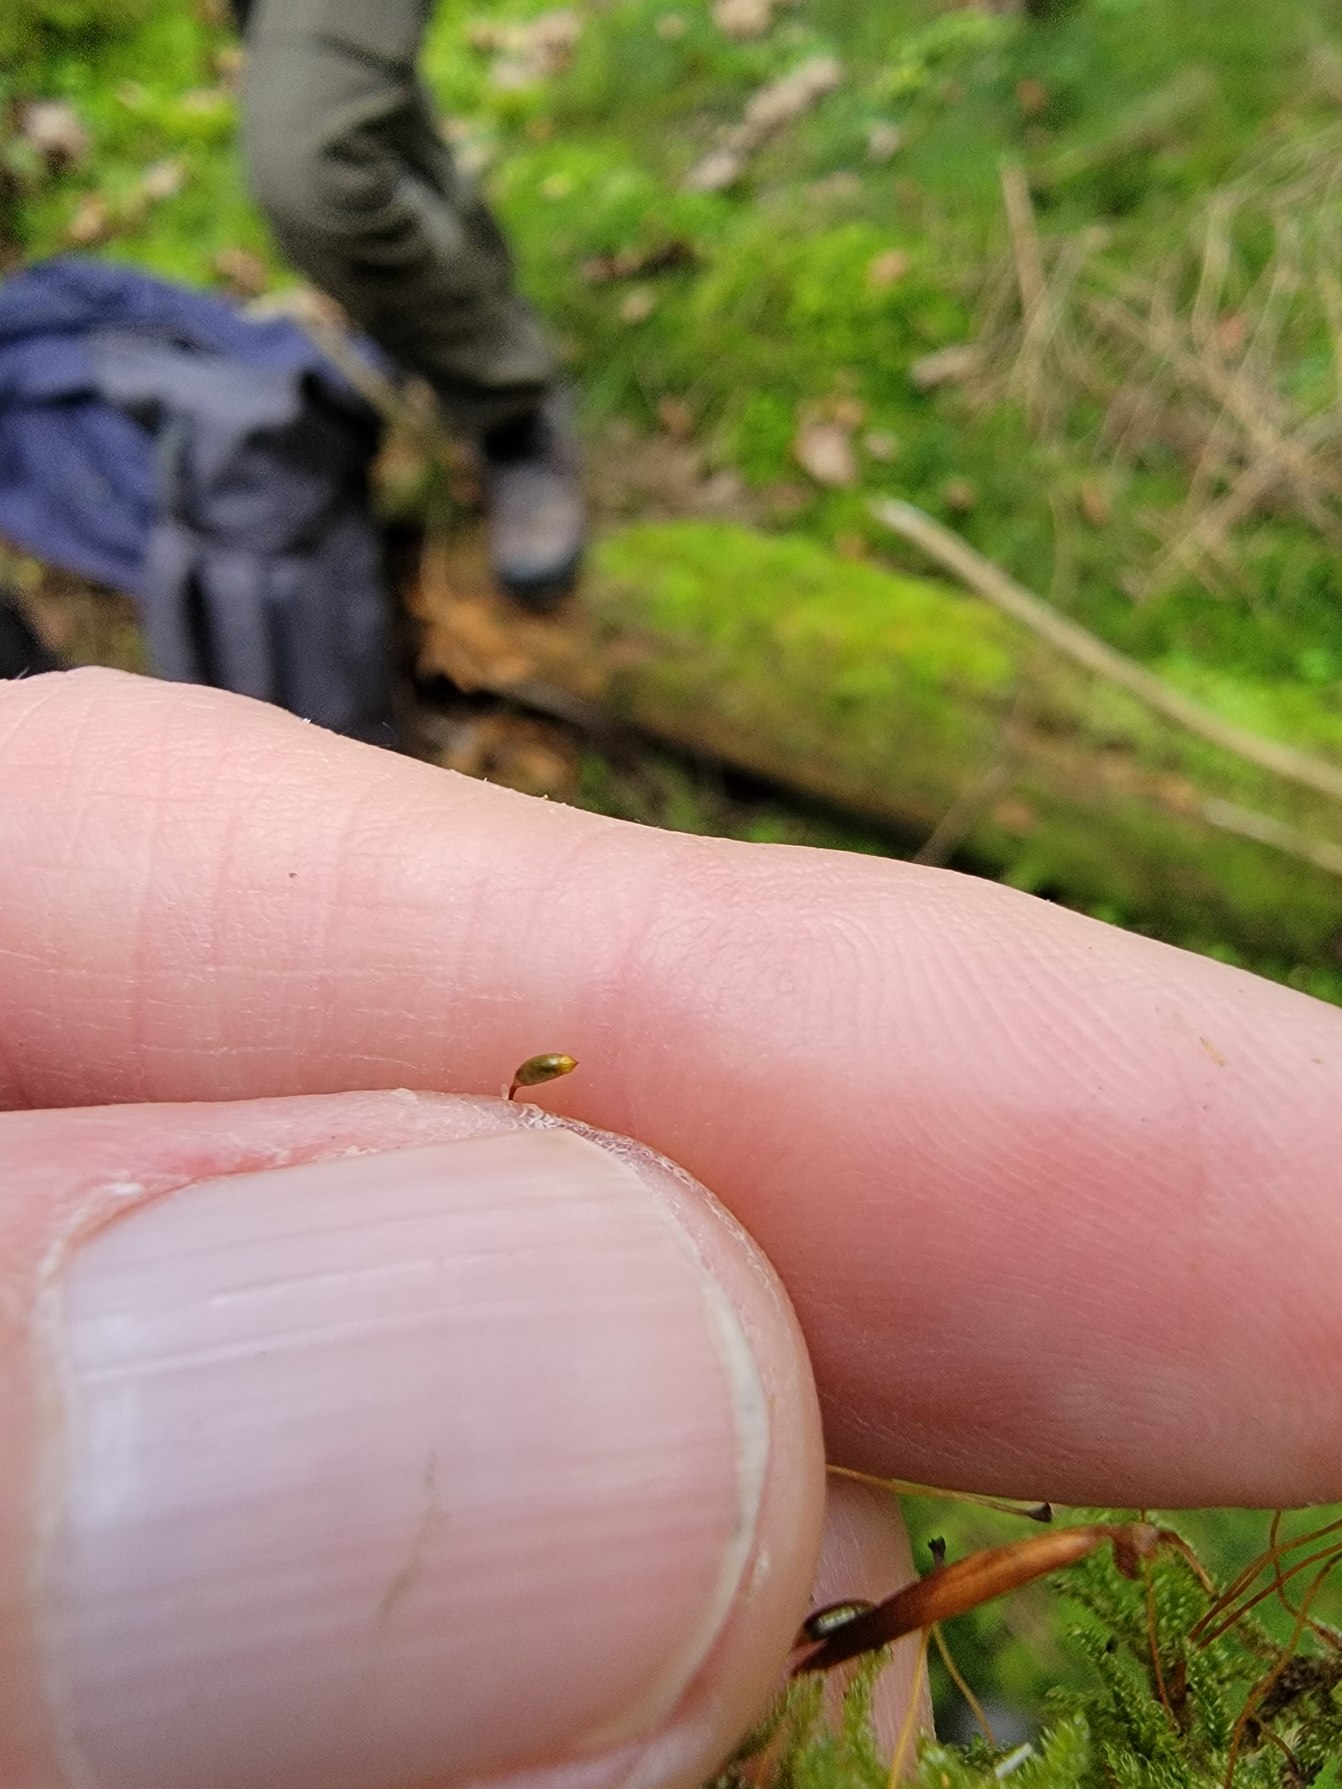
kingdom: Plantae
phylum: Bryophyta
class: Bryopsida
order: Hypnales
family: Hypnaceae
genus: Hypnum
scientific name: Hypnum andoi
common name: Vortet cypresmos
